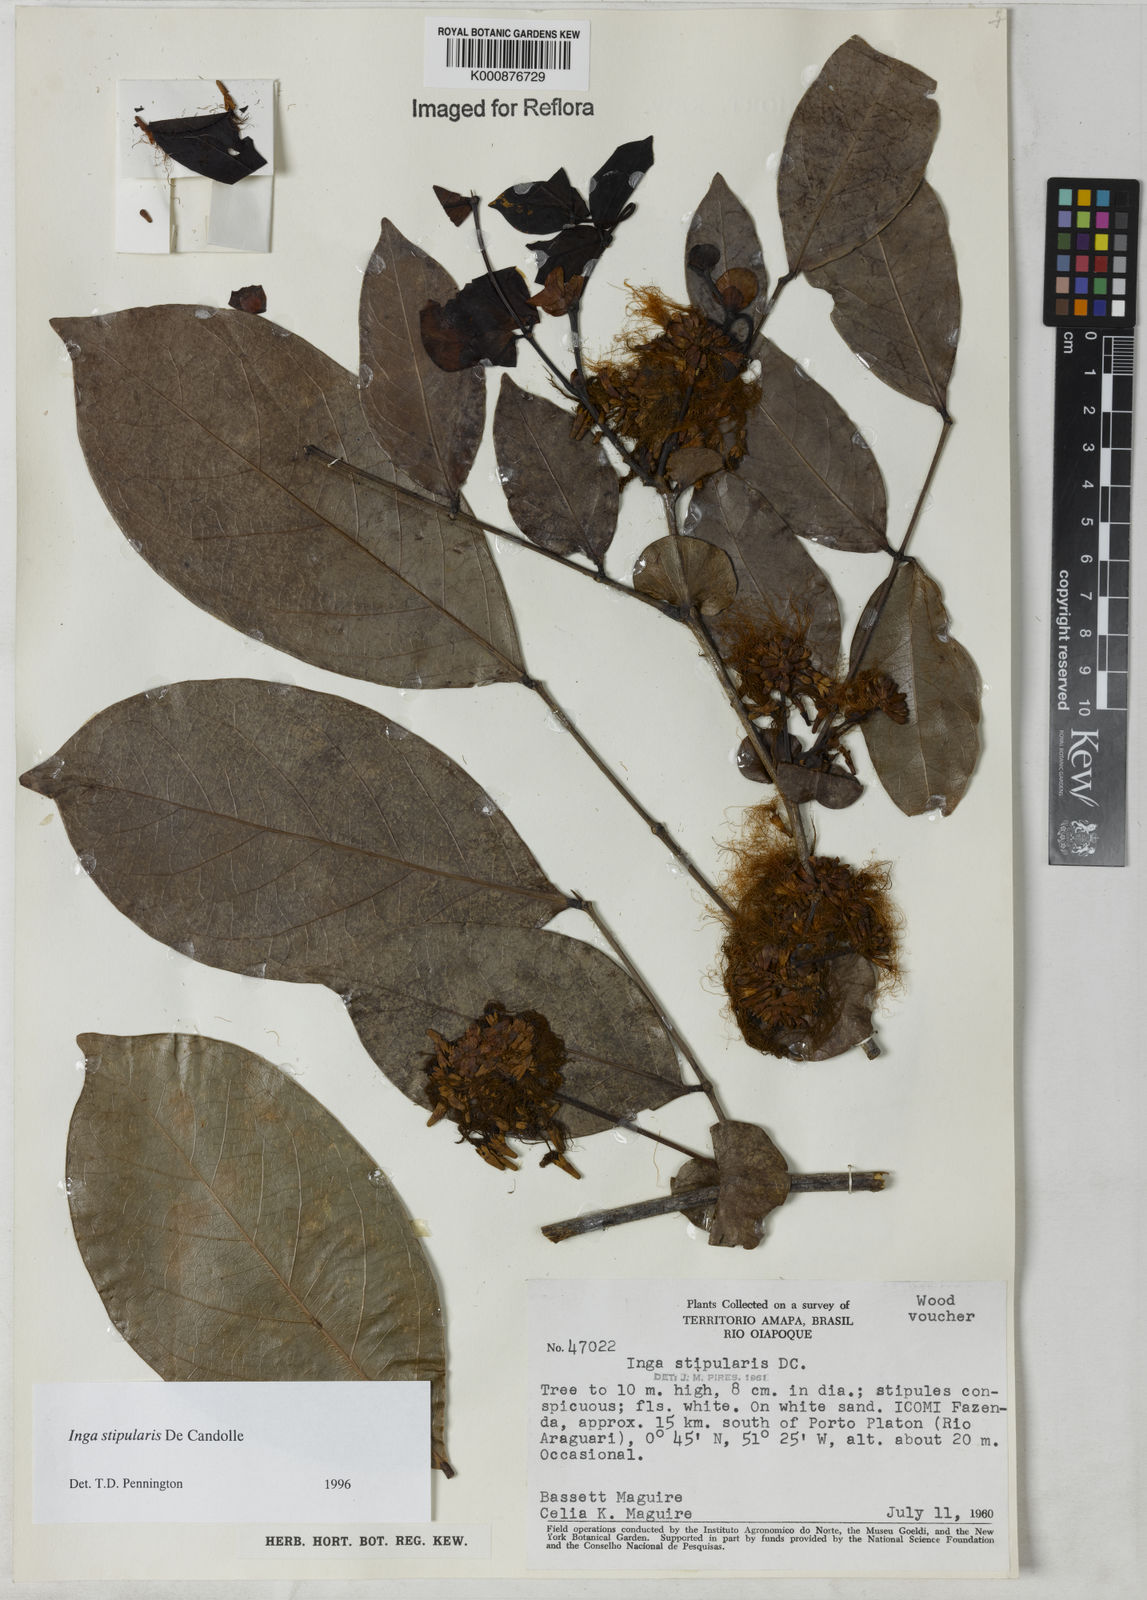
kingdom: Plantae
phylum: Tracheophyta
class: Magnoliopsida
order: Fabales
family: Fabaceae
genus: Inga
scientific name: Inga stipularis
